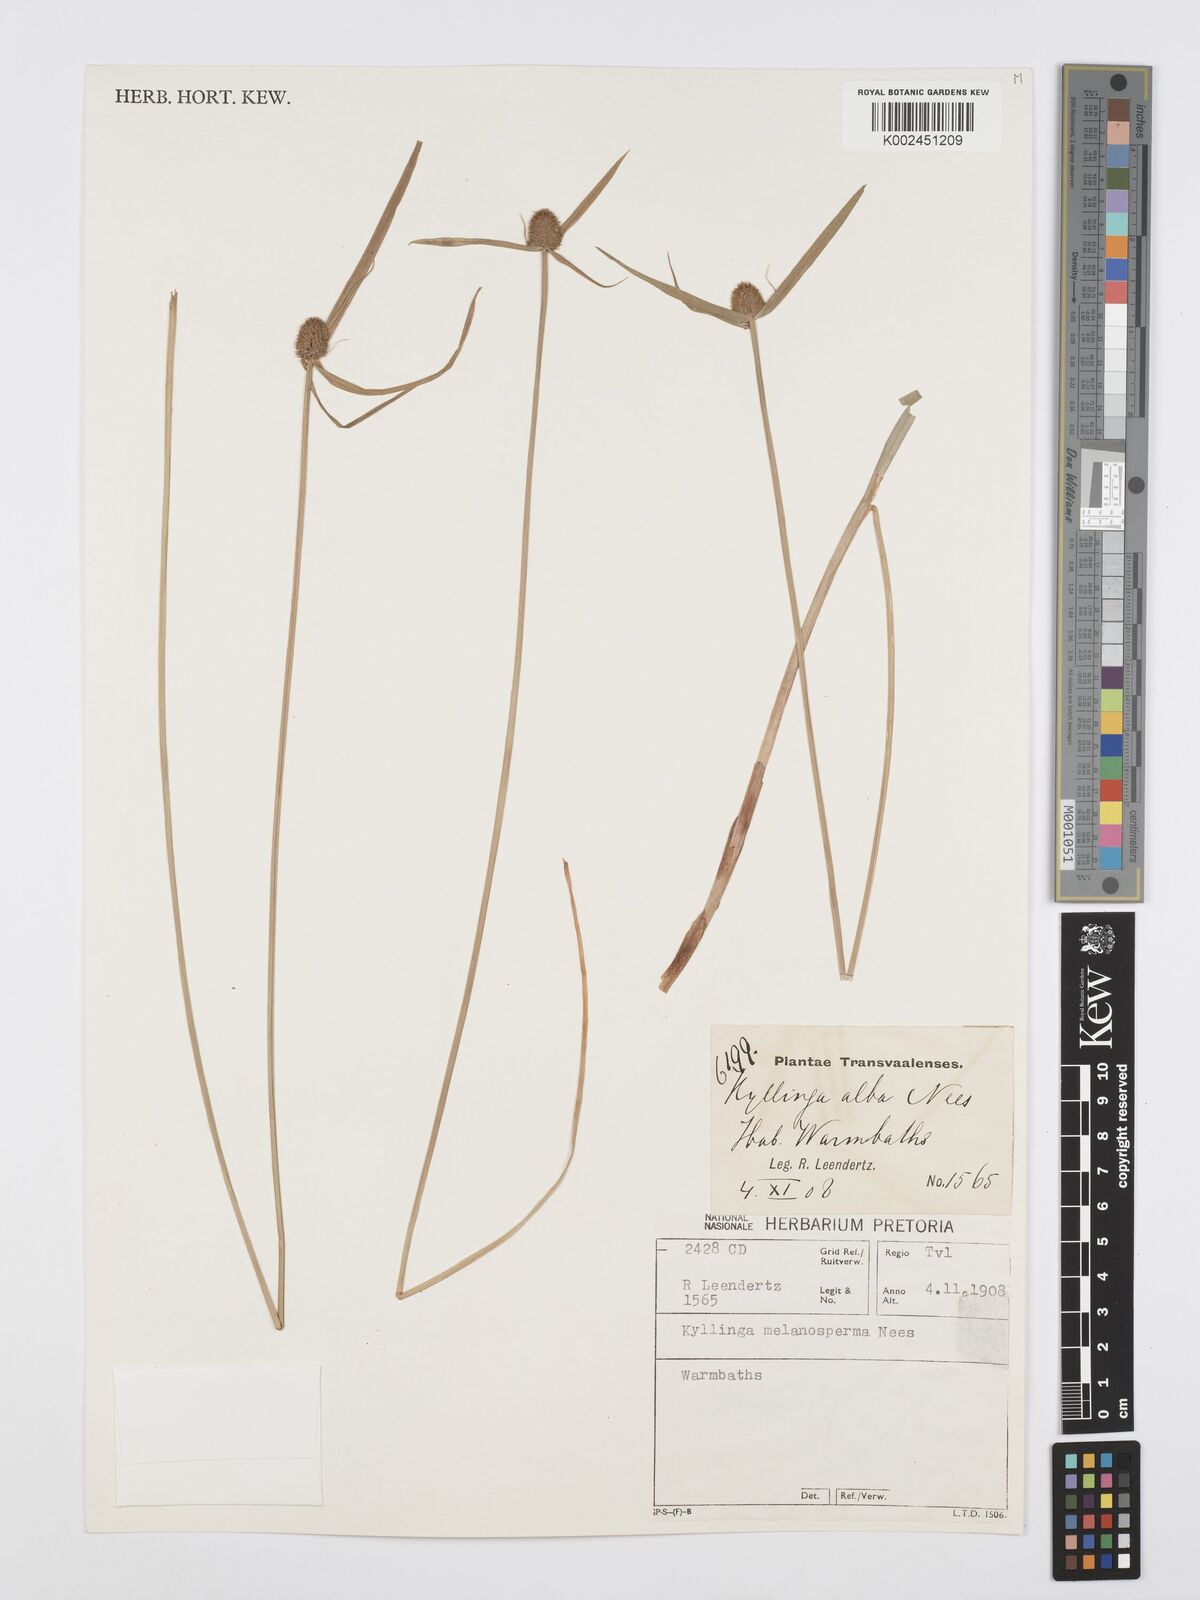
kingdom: Plantae
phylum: Tracheophyta
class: Liliopsida
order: Poales
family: Cyperaceae
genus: Cyperus
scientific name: Cyperus melanospermus
